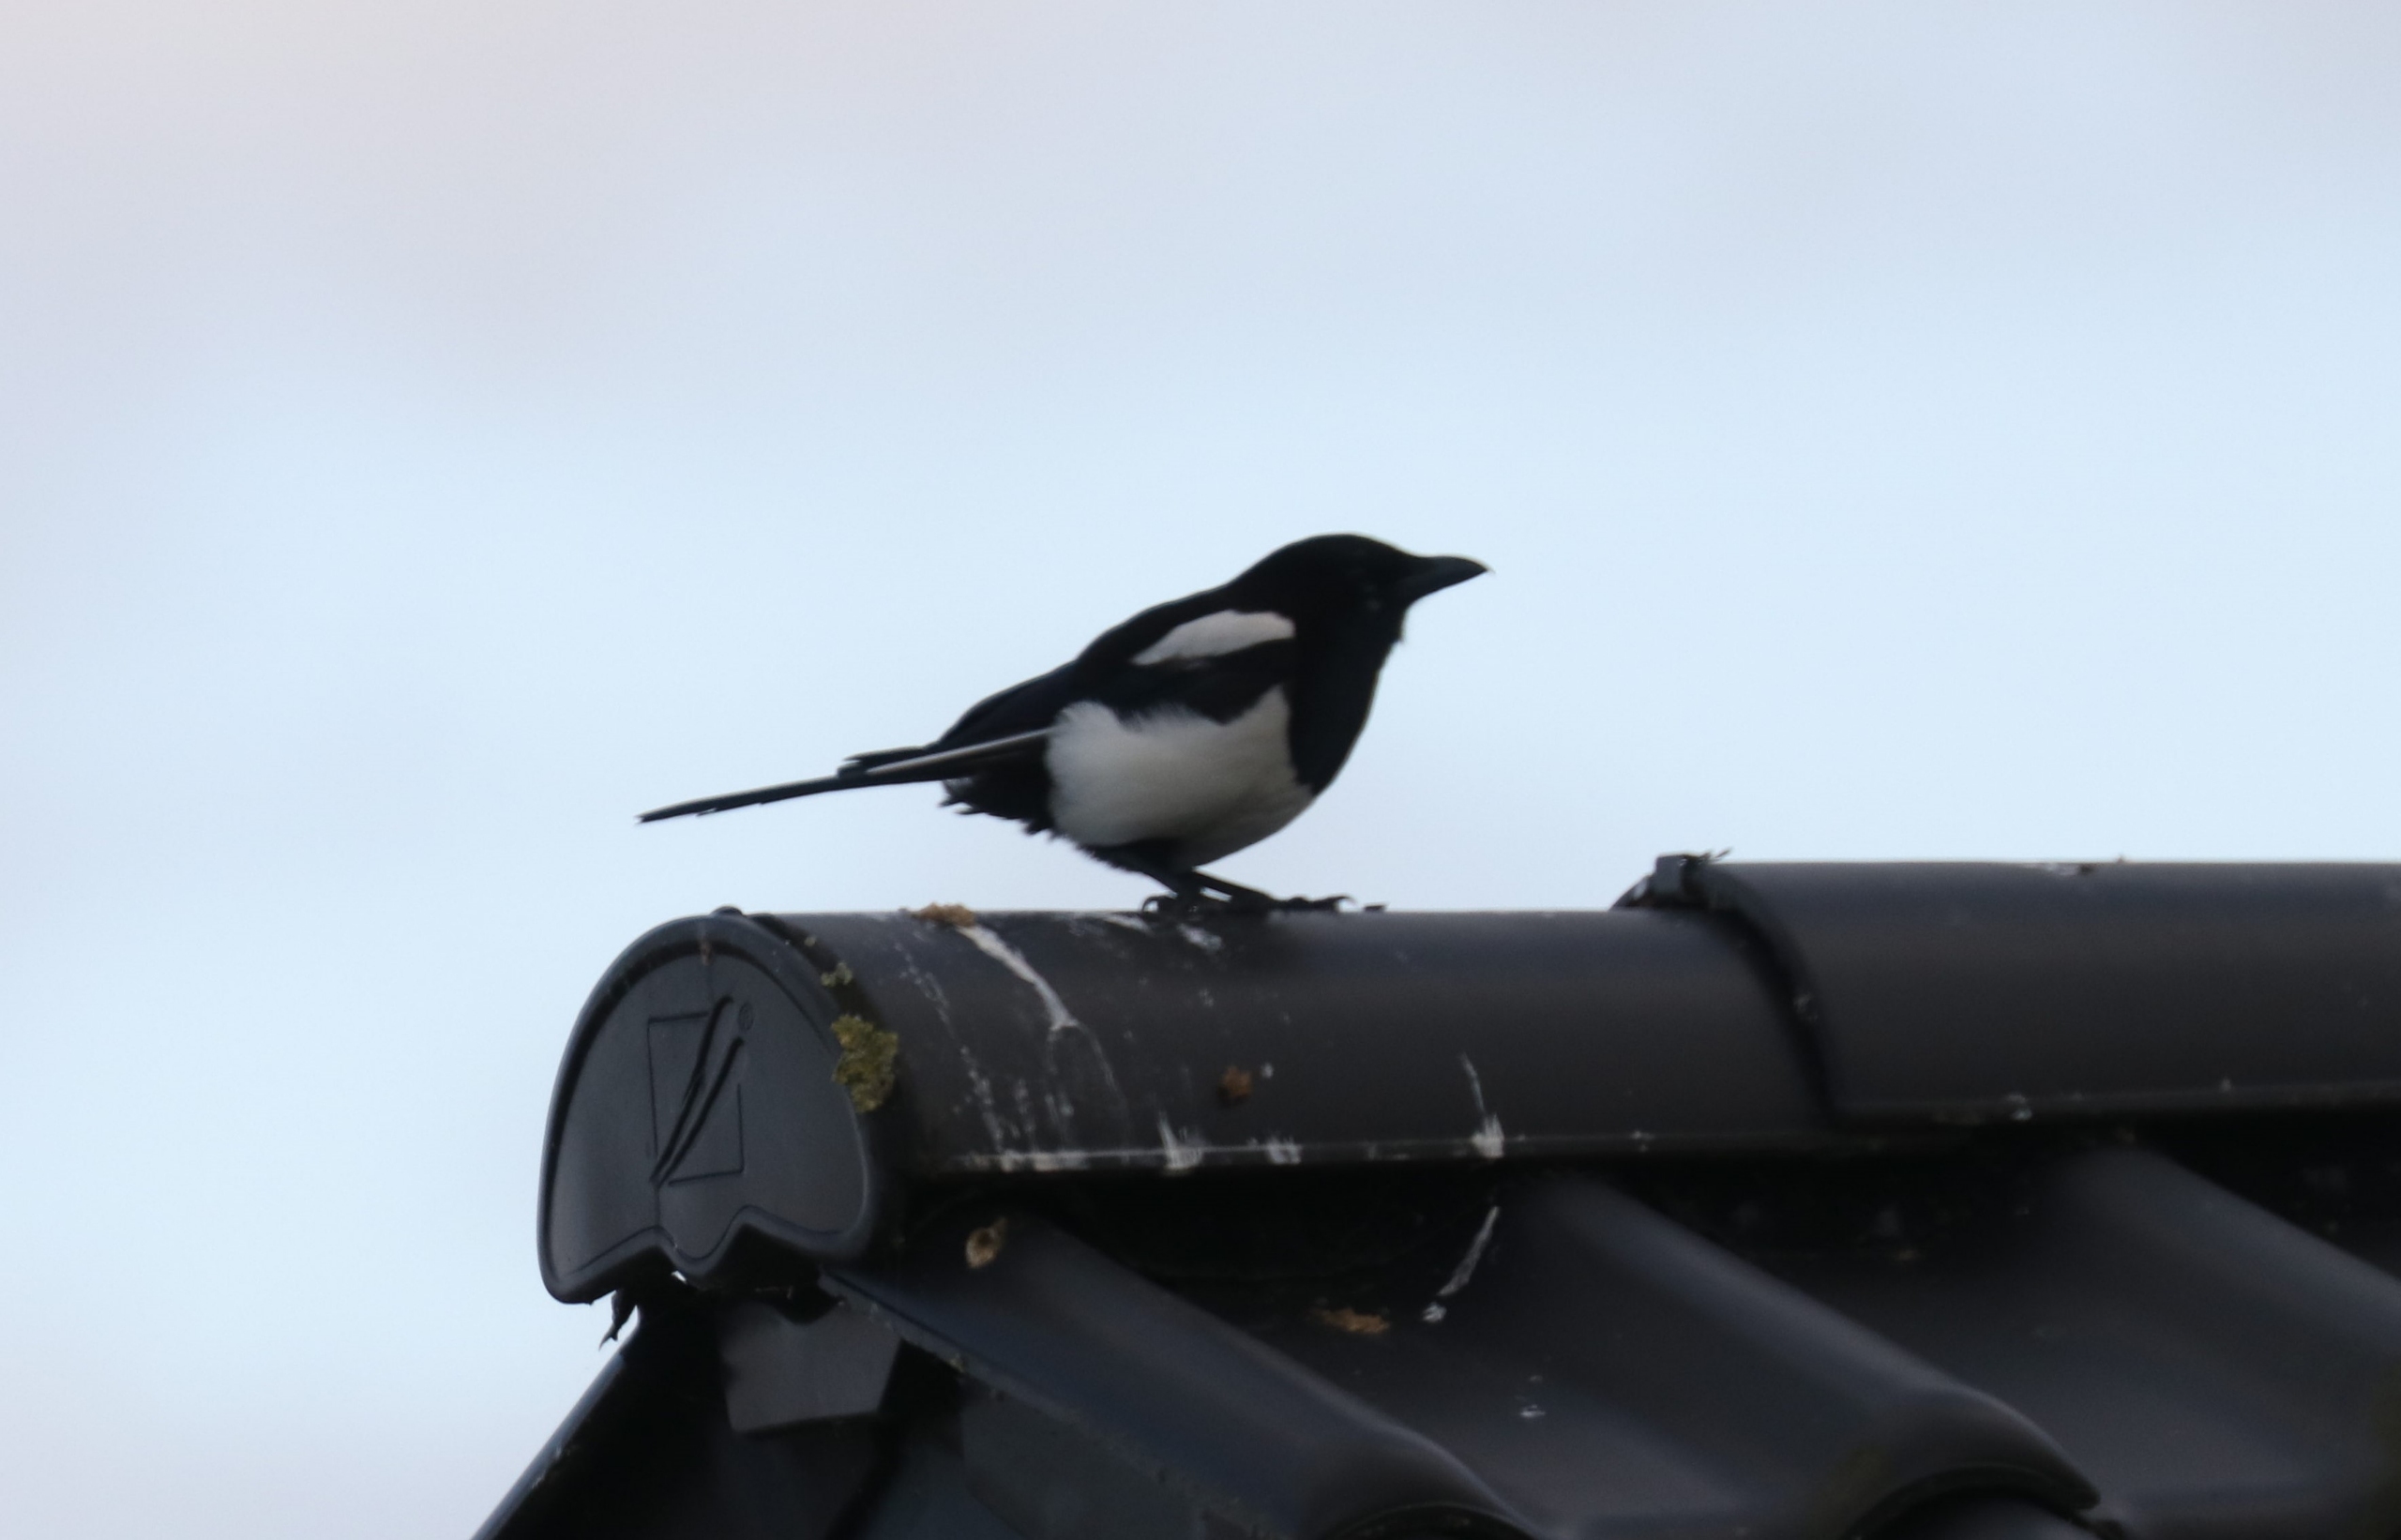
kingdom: Animalia
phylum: Chordata
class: Aves
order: Passeriformes
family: Corvidae
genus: Pica
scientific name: Pica pica
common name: Husskade
